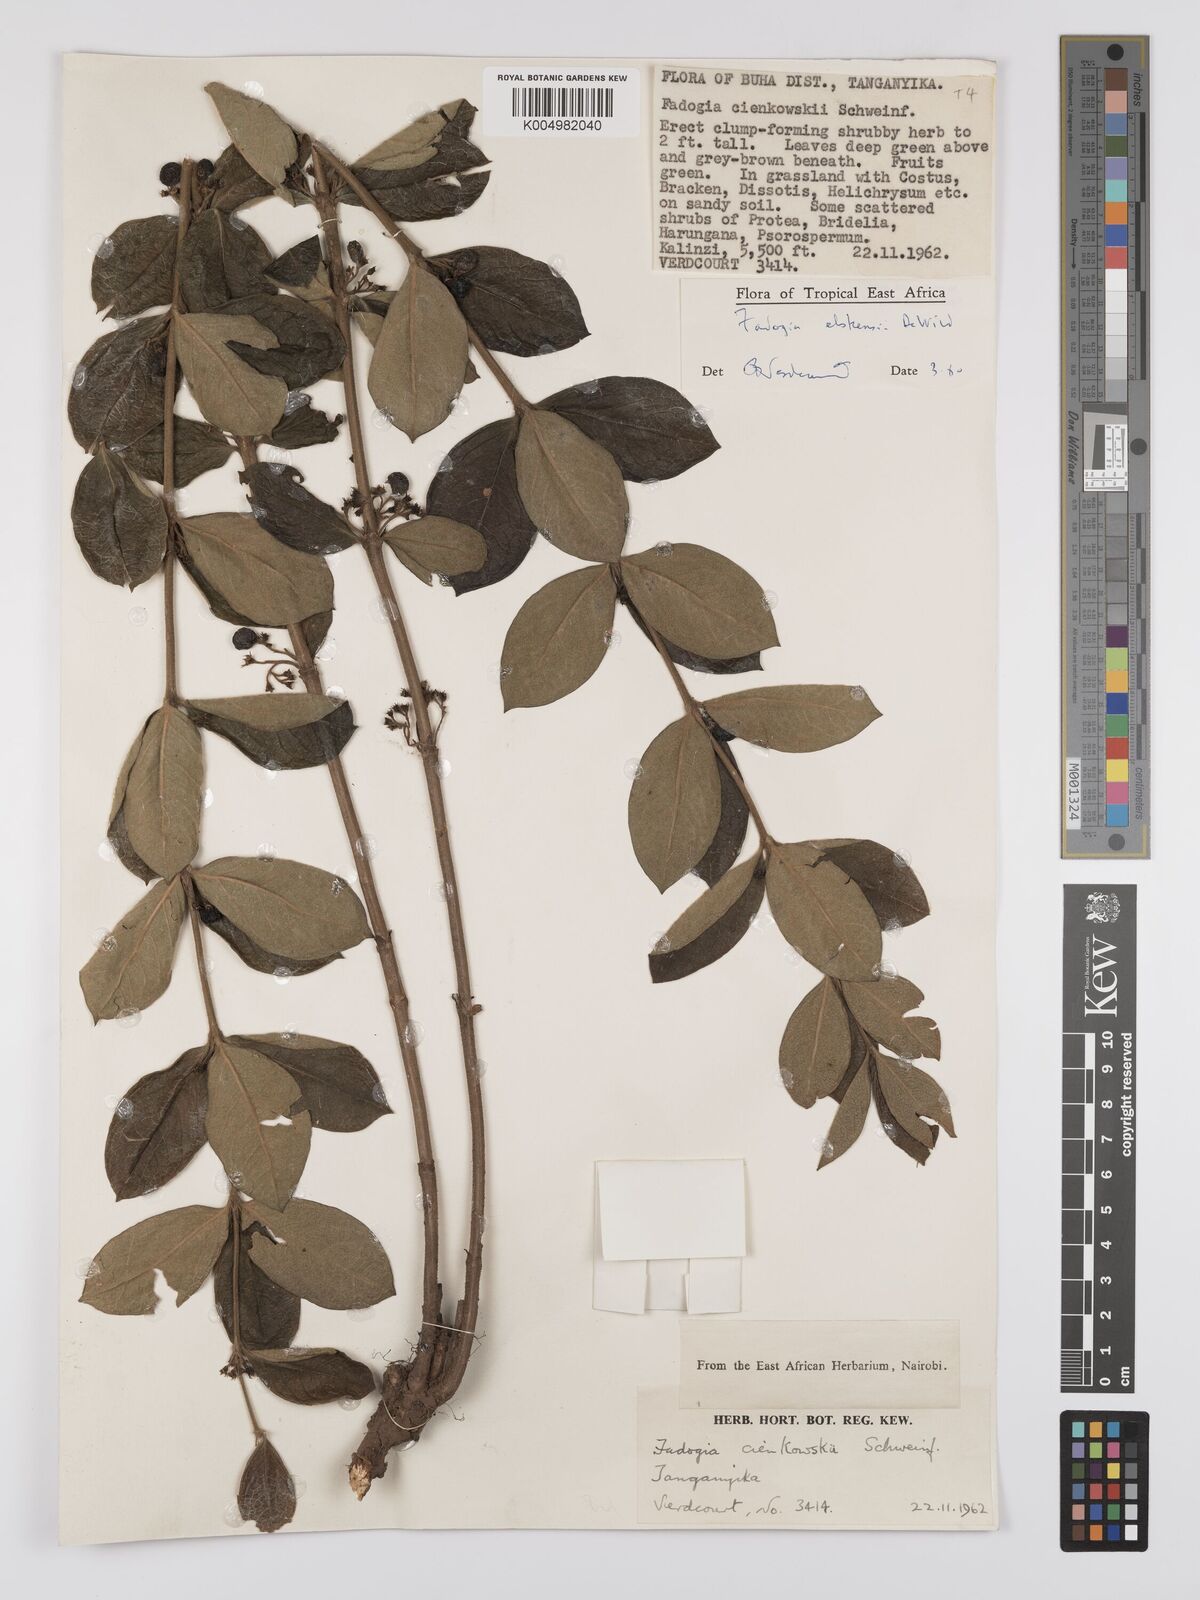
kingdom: Plantae
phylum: Tracheophyta
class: Magnoliopsida
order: Gentianales
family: Rubiaceae
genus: Fadogia
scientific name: Fadogia elskensii
